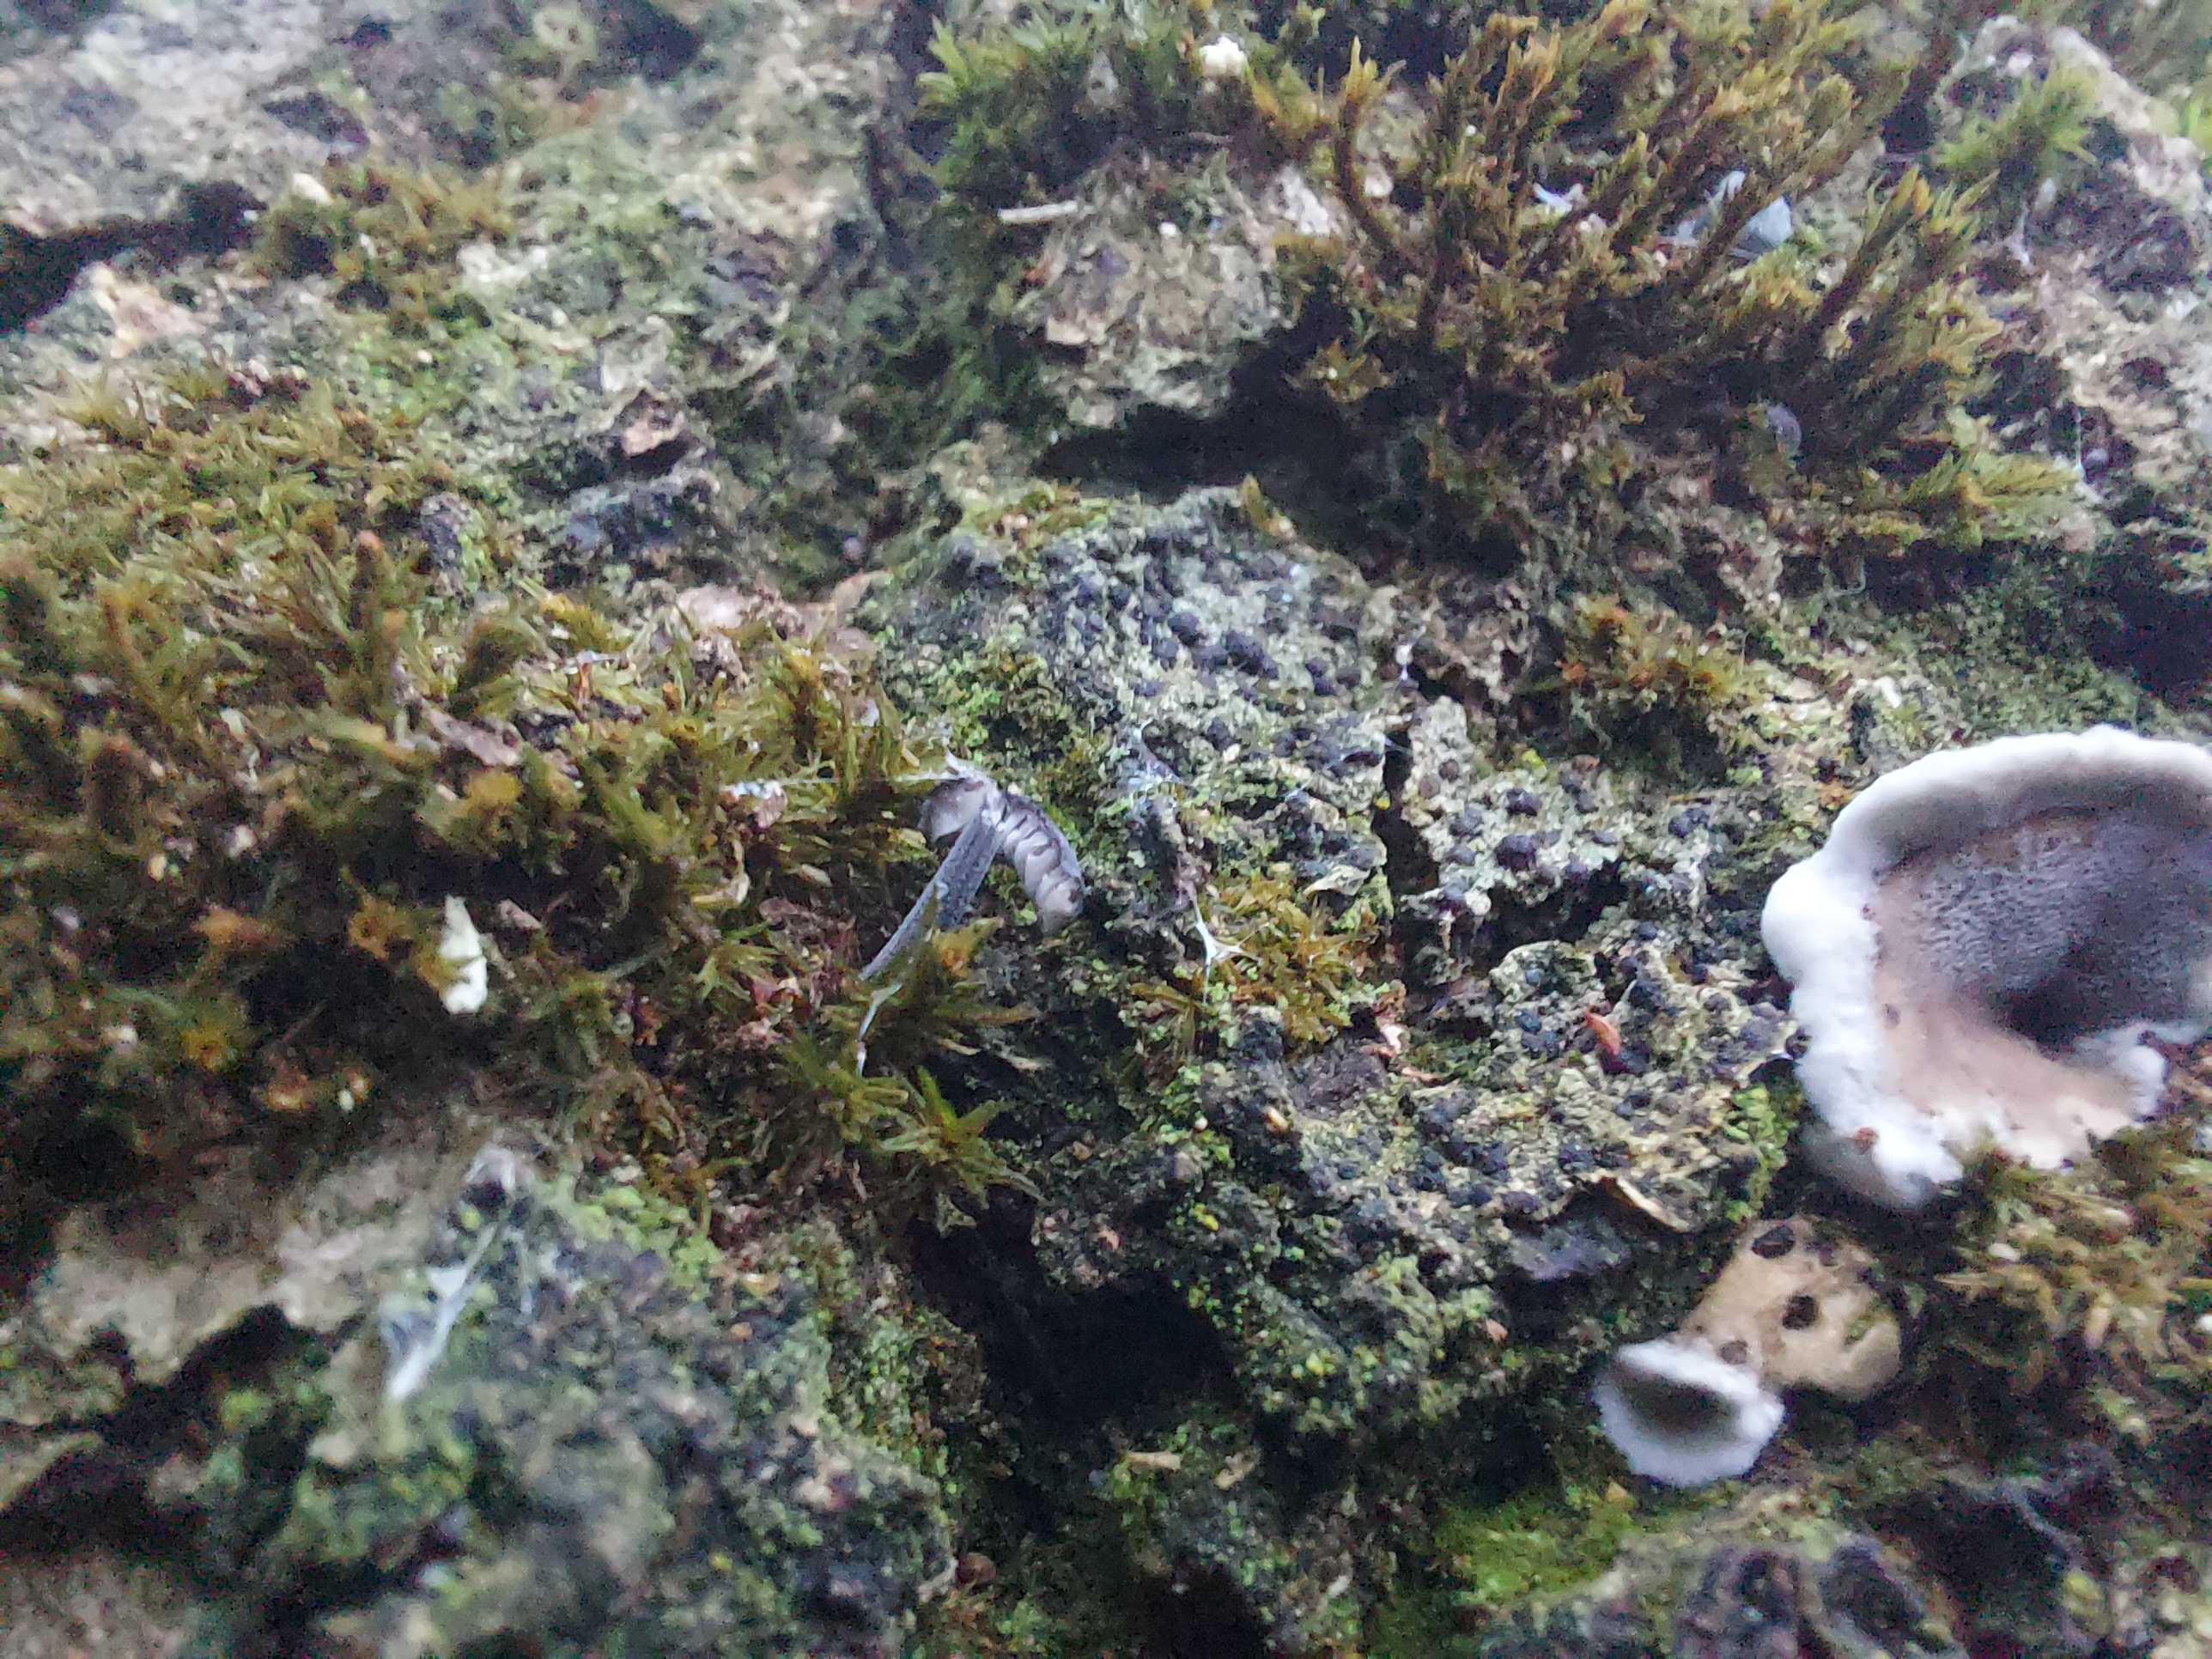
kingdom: Fungi
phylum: Basidiomycota
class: Agaricomycetes
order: Agaricales
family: Mycenaceae
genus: Mycena
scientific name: Mycena pseudocorticola
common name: gråblå bark-huesvamp
